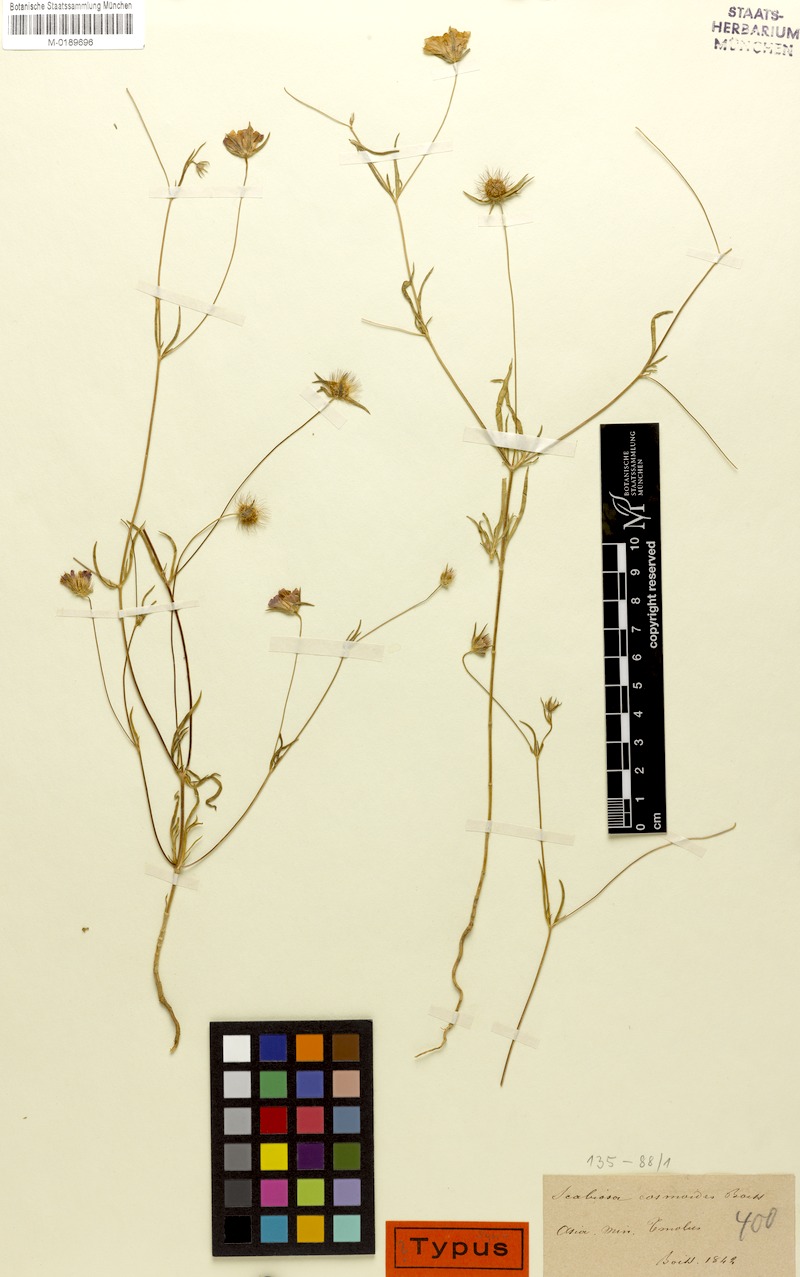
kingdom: Plantae
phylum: Tracheophyta
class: Magnoliopsida
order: Dipsacales
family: Caprifoliaceae
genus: Lomelosia
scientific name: Lomelosia cosmoides
